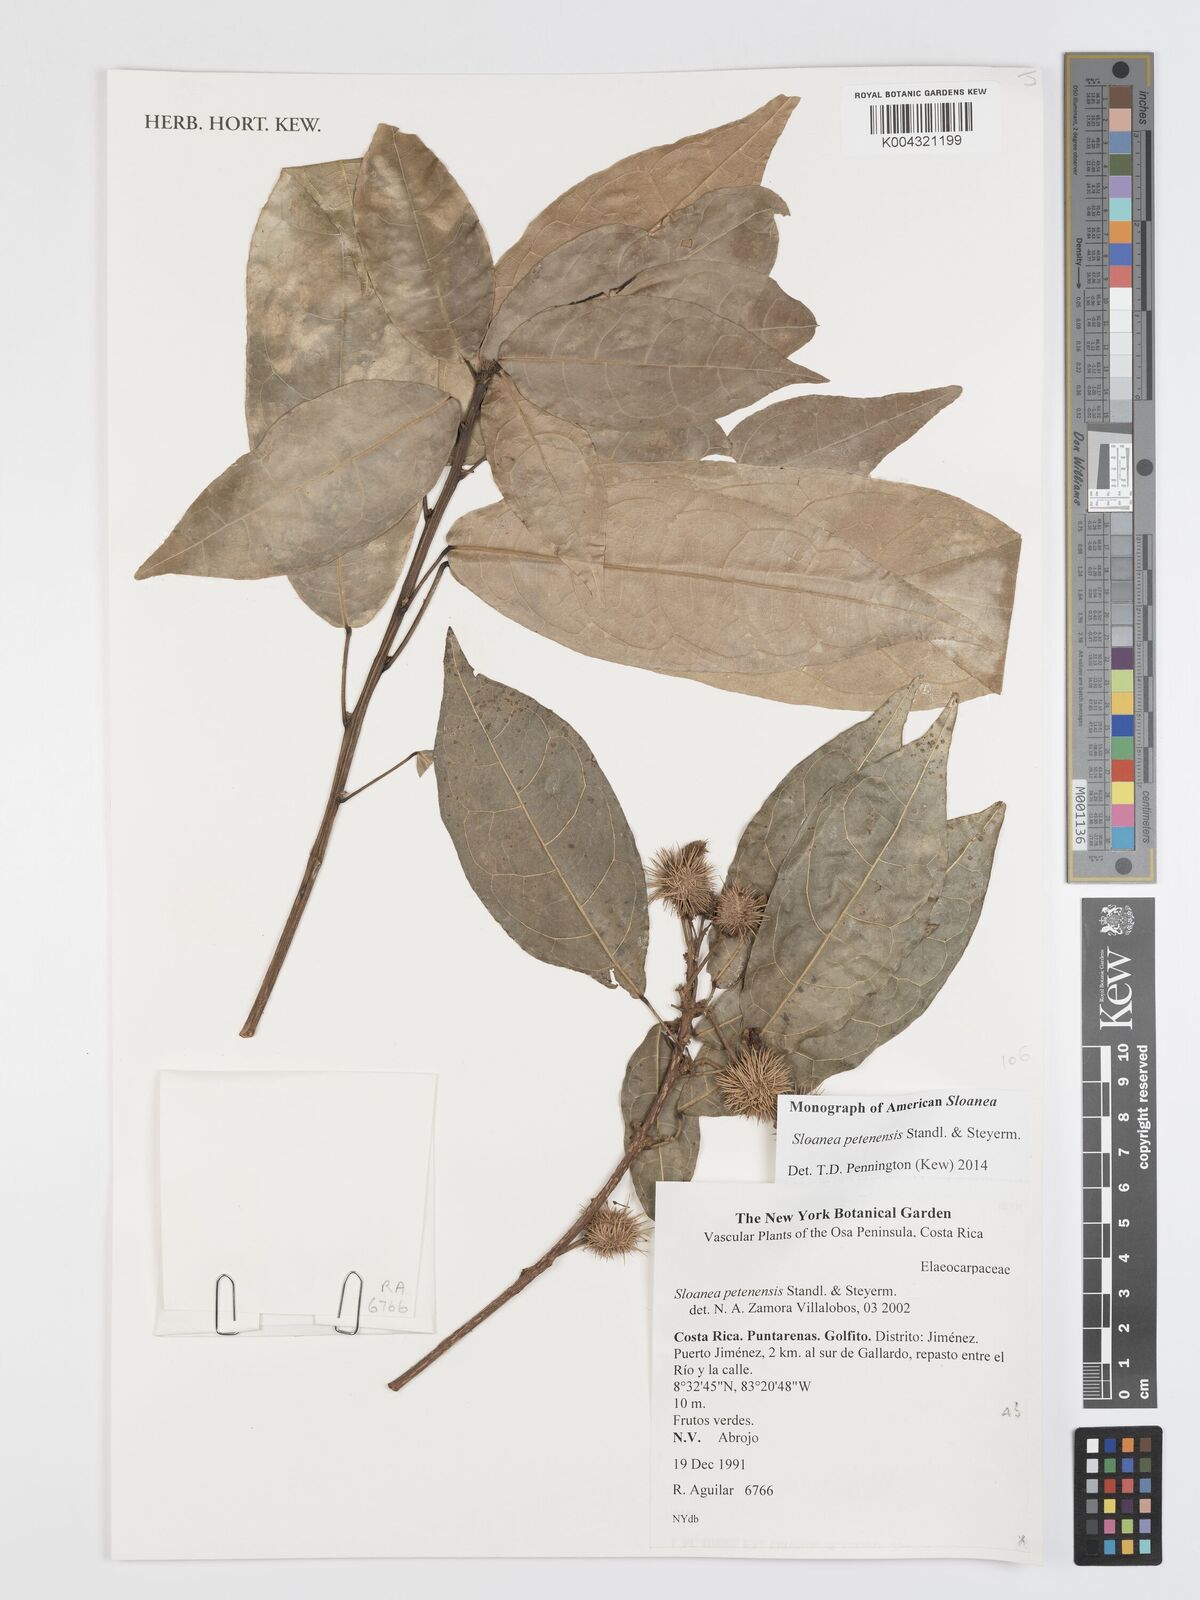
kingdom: Plantae
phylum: Tracheophyta
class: Magnoliopsida
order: Oxalidales
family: Elaeocarpaceae
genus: Sloanea
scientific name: Sloanea petenensis
